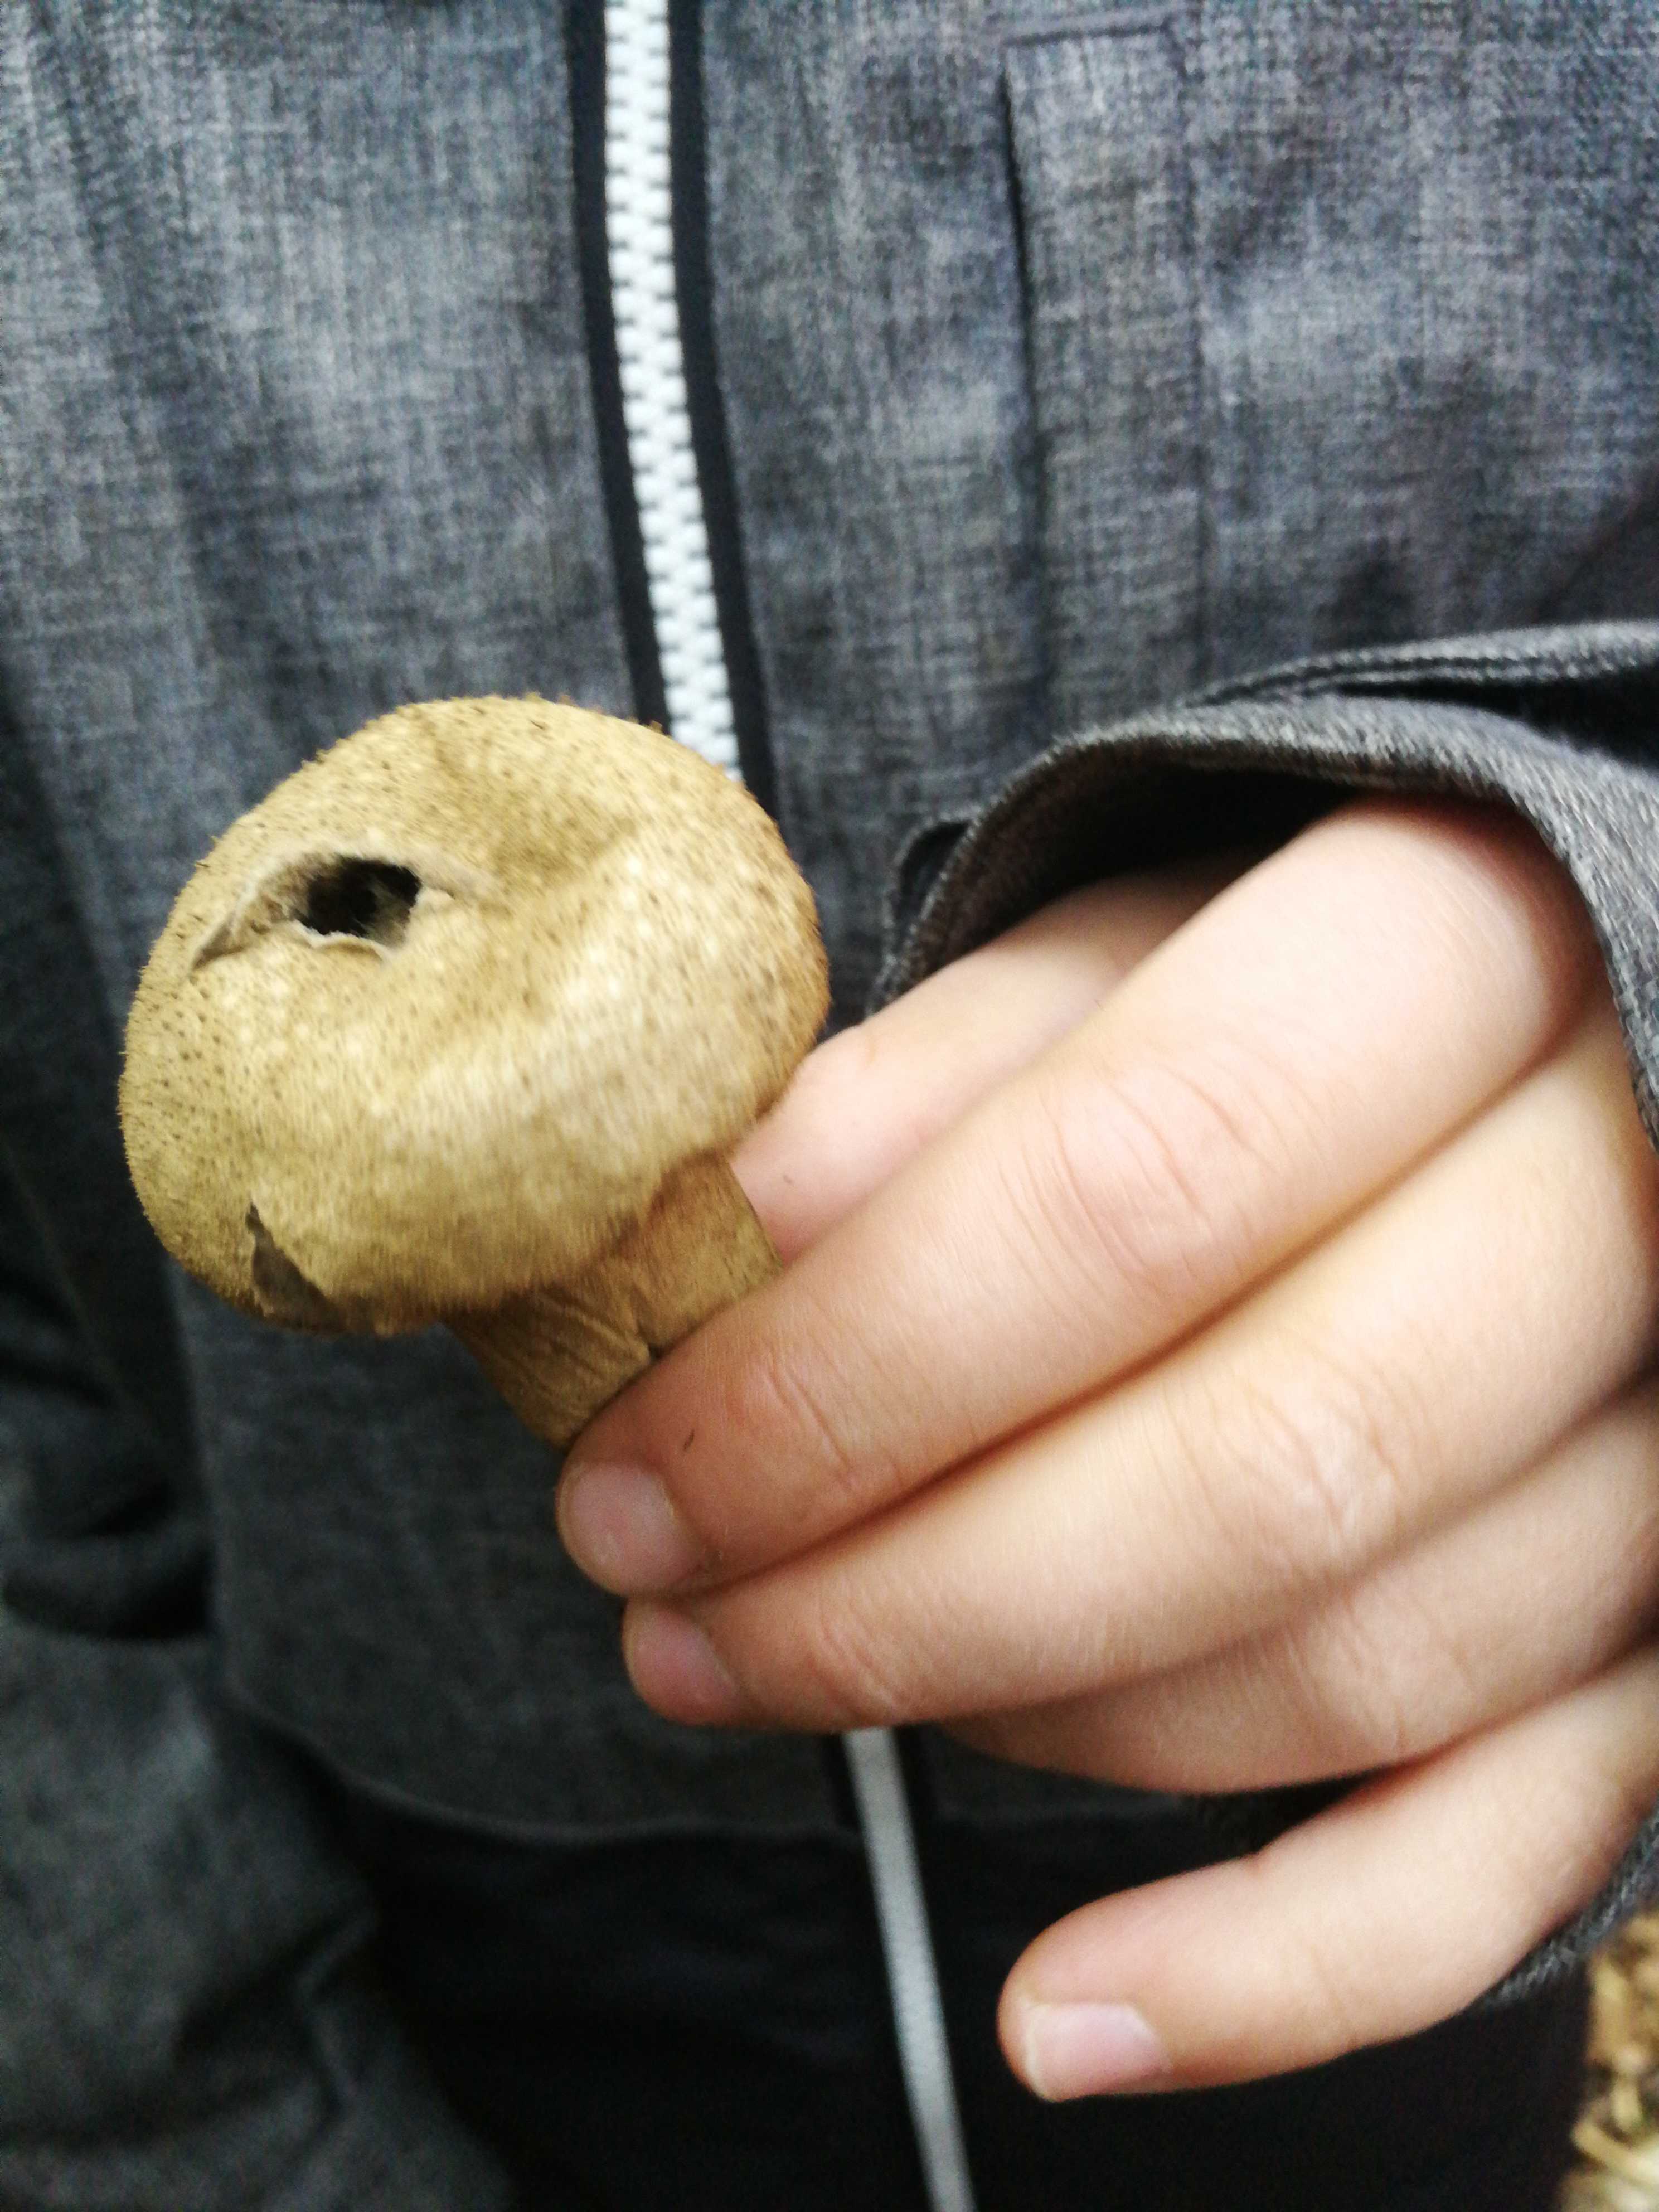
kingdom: Fungi
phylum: Basidiomycota
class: Agaricomycetes
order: Agaricales
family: Lycoperdaceae
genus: Lycoperdon
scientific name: Lycoperdon perlatum
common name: krystal-støvbold
